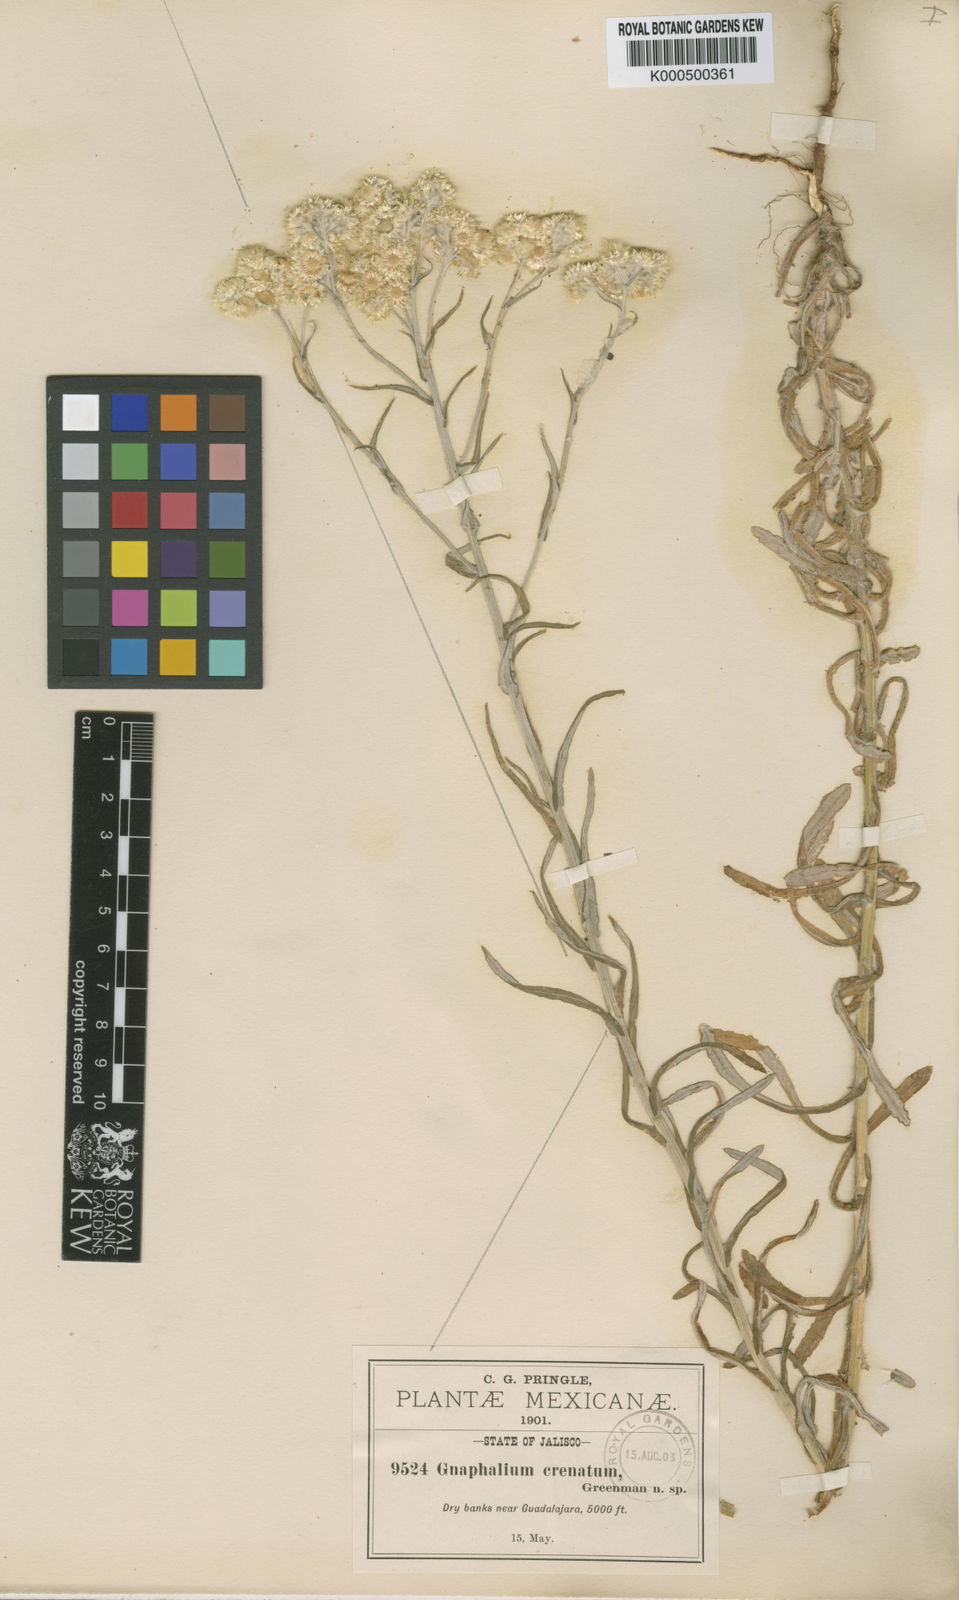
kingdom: Plantae
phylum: Tracheophyta
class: Magnoliopsida
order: Asterales
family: Asteraceae
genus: Pseudognaphalium
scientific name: Pseudognaphalium viscosum
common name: Sticky rabbit-tobacco
